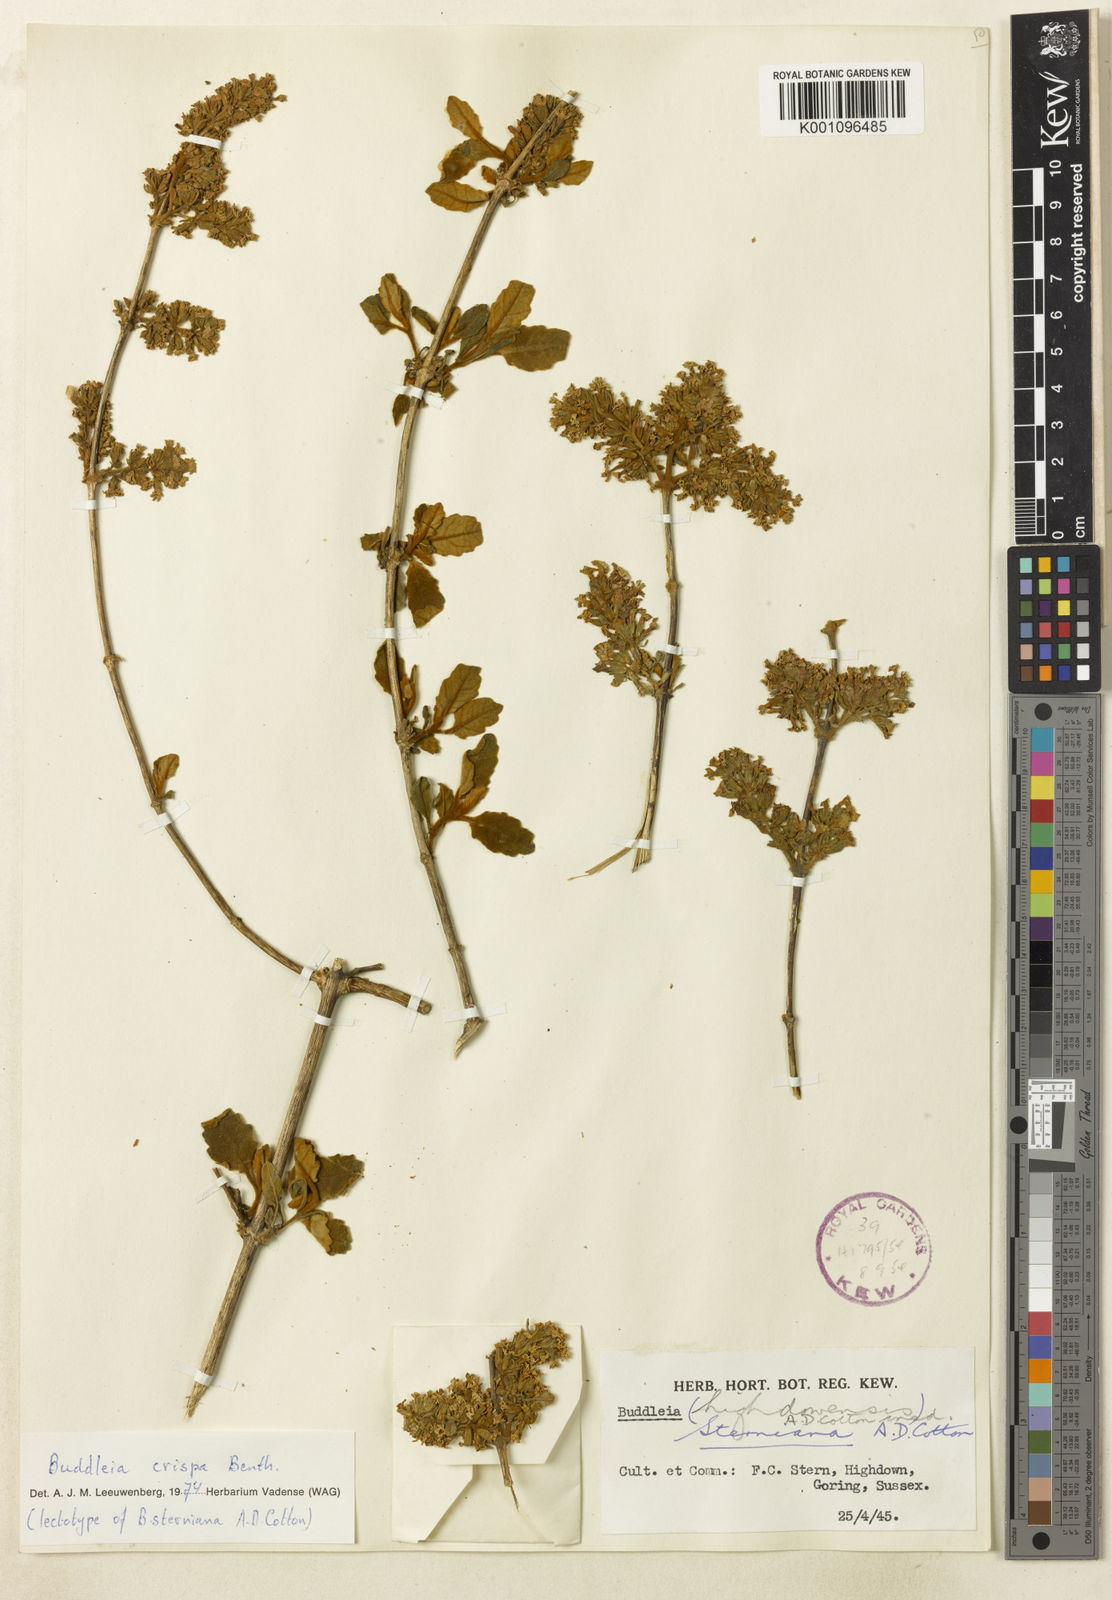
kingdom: Plantae
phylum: Tracheophyta
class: Magnoliopsida
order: Lamiales
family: Scrophulariaceae
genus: Buddleja
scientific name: Buddleja crispa
